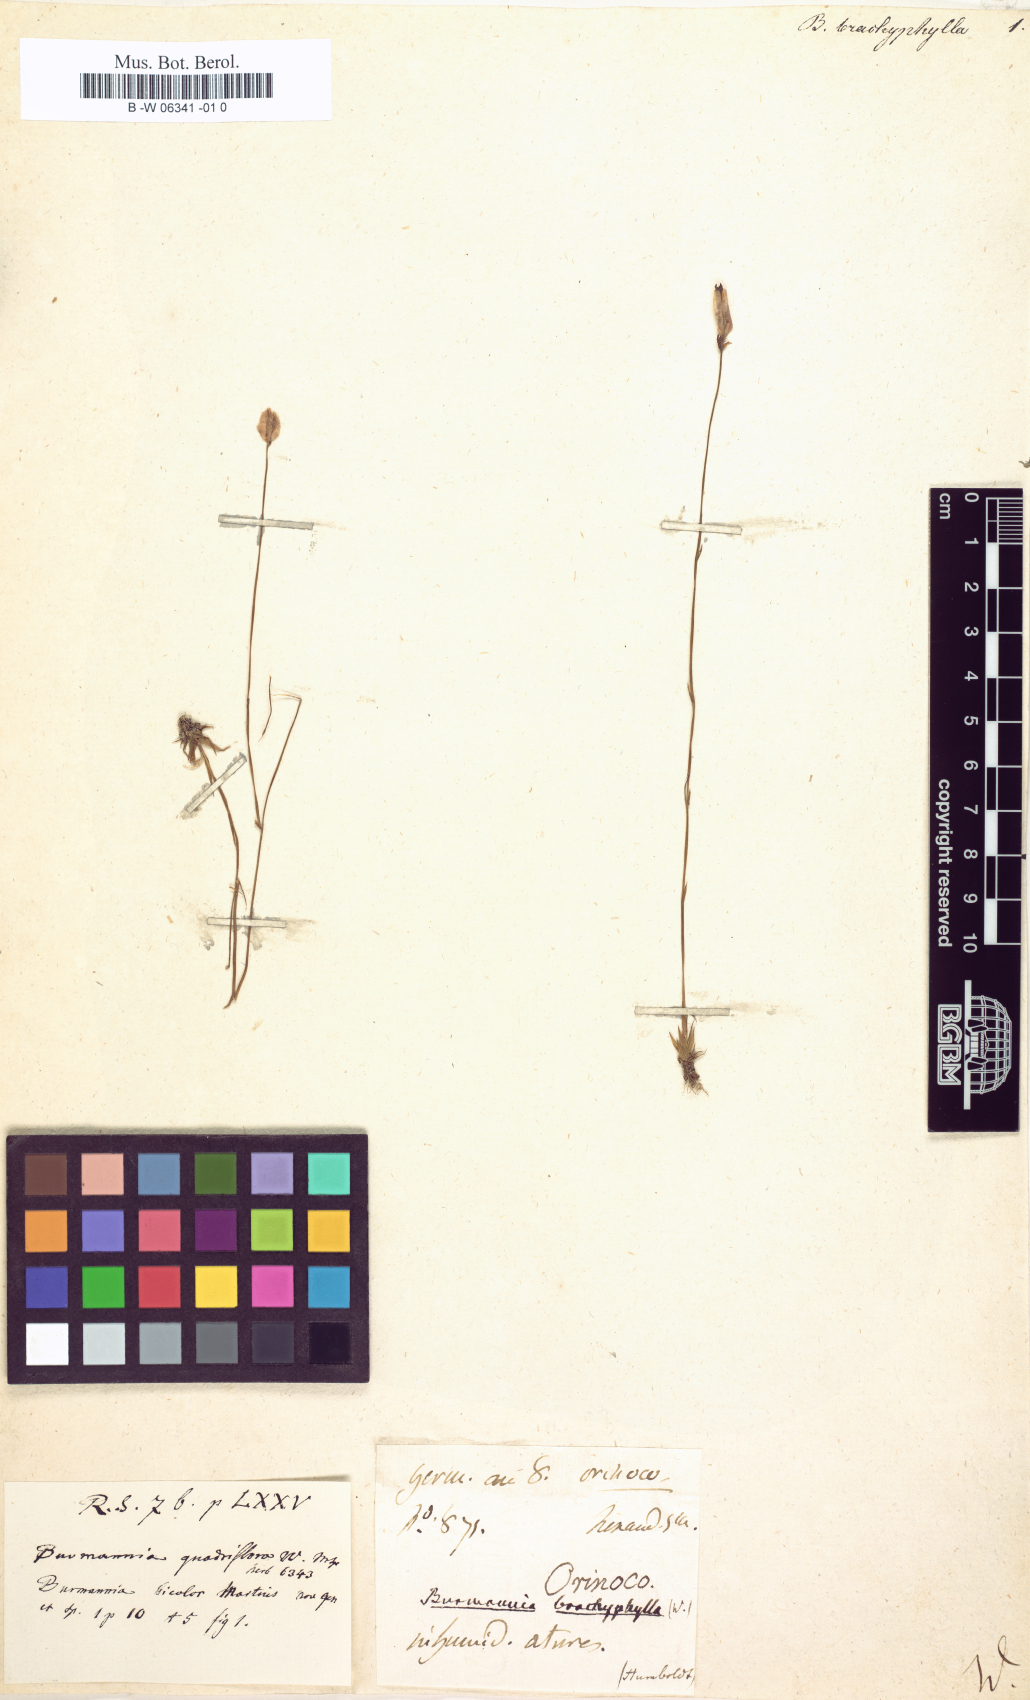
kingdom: Plantae
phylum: Tracheophyta
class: Liliopsida
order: Dioscoreales
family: Burmanniaceae
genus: Burmannia
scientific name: Burmannia bicolor
